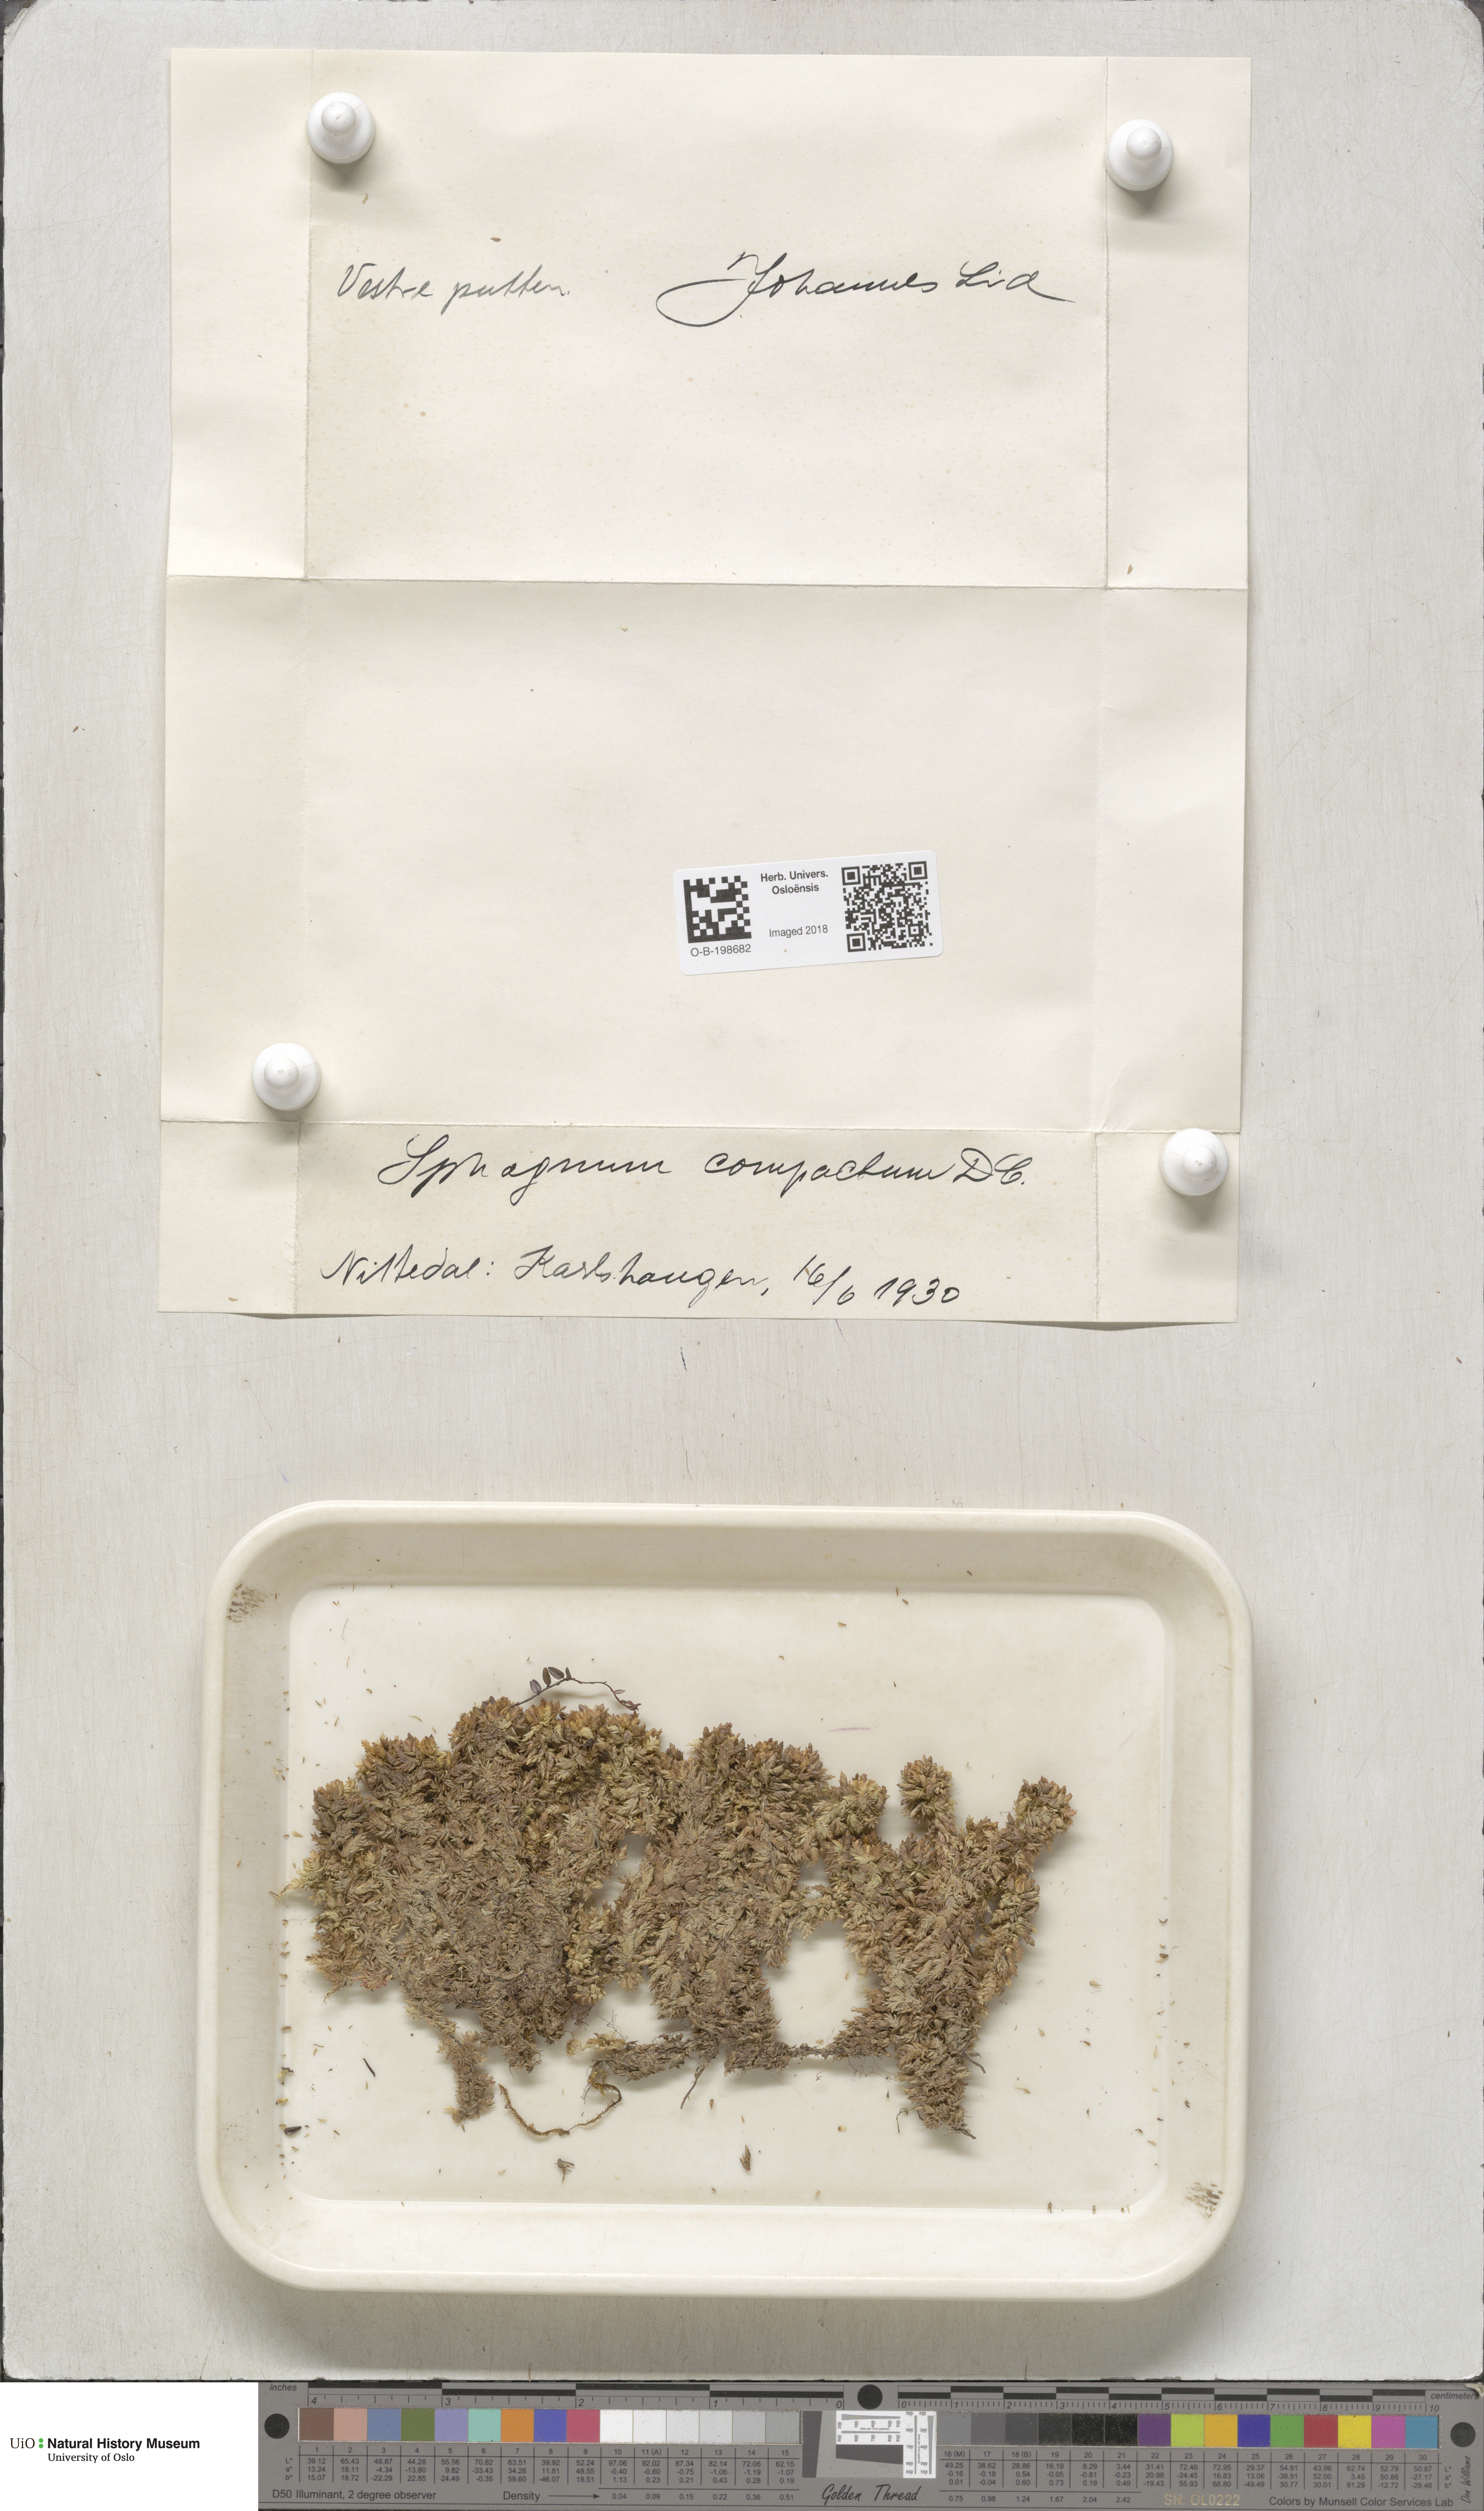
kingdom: Plantae
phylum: Bryophyta
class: Sphagnopsida
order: Sphagnales
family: Sphagnaceae
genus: Sphagnum
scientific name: Sphagnum compactum
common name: Compact peat moss
